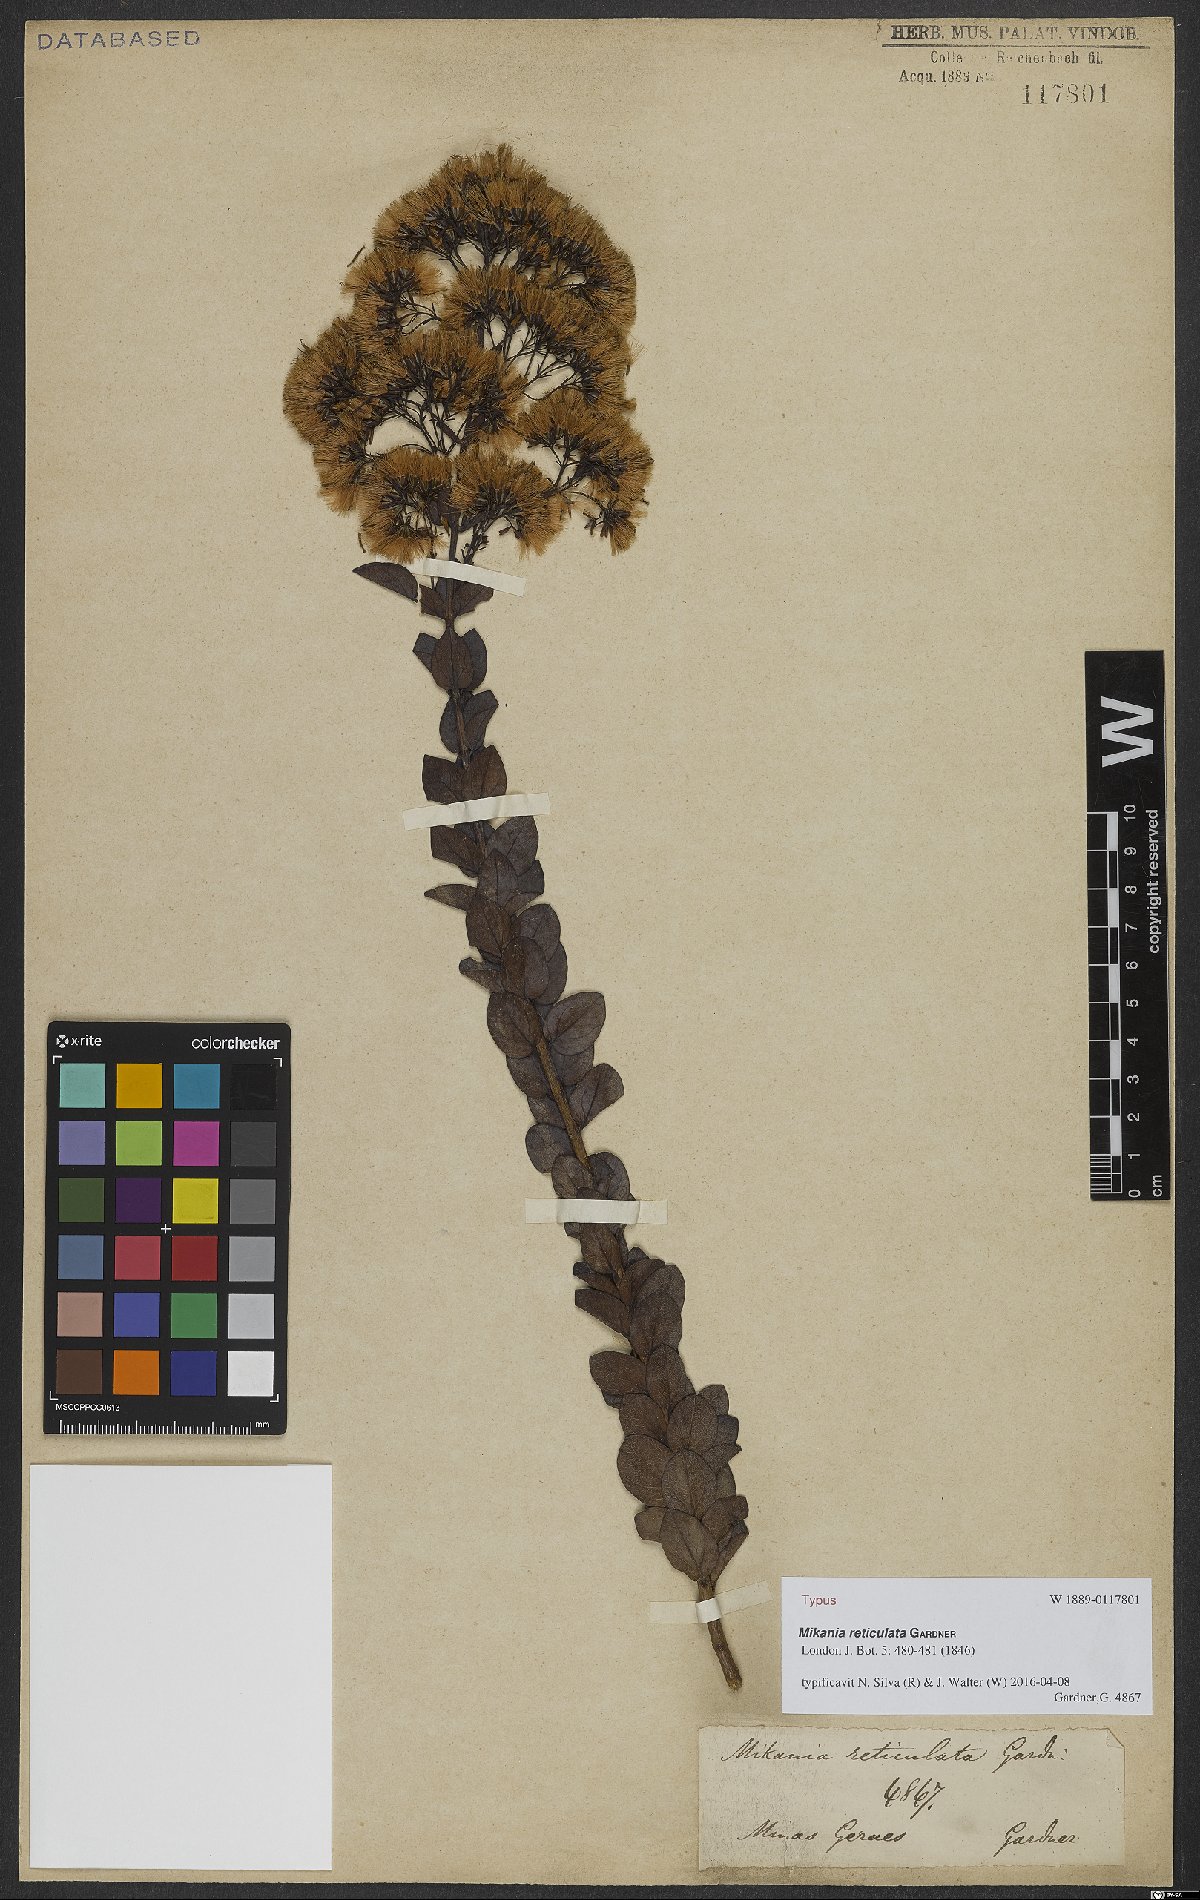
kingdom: Plantae
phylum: Tracheophyta
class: Magnoliopsida
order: Asterales
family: Asteraceae
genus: Mikania
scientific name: Mikania reticulata
